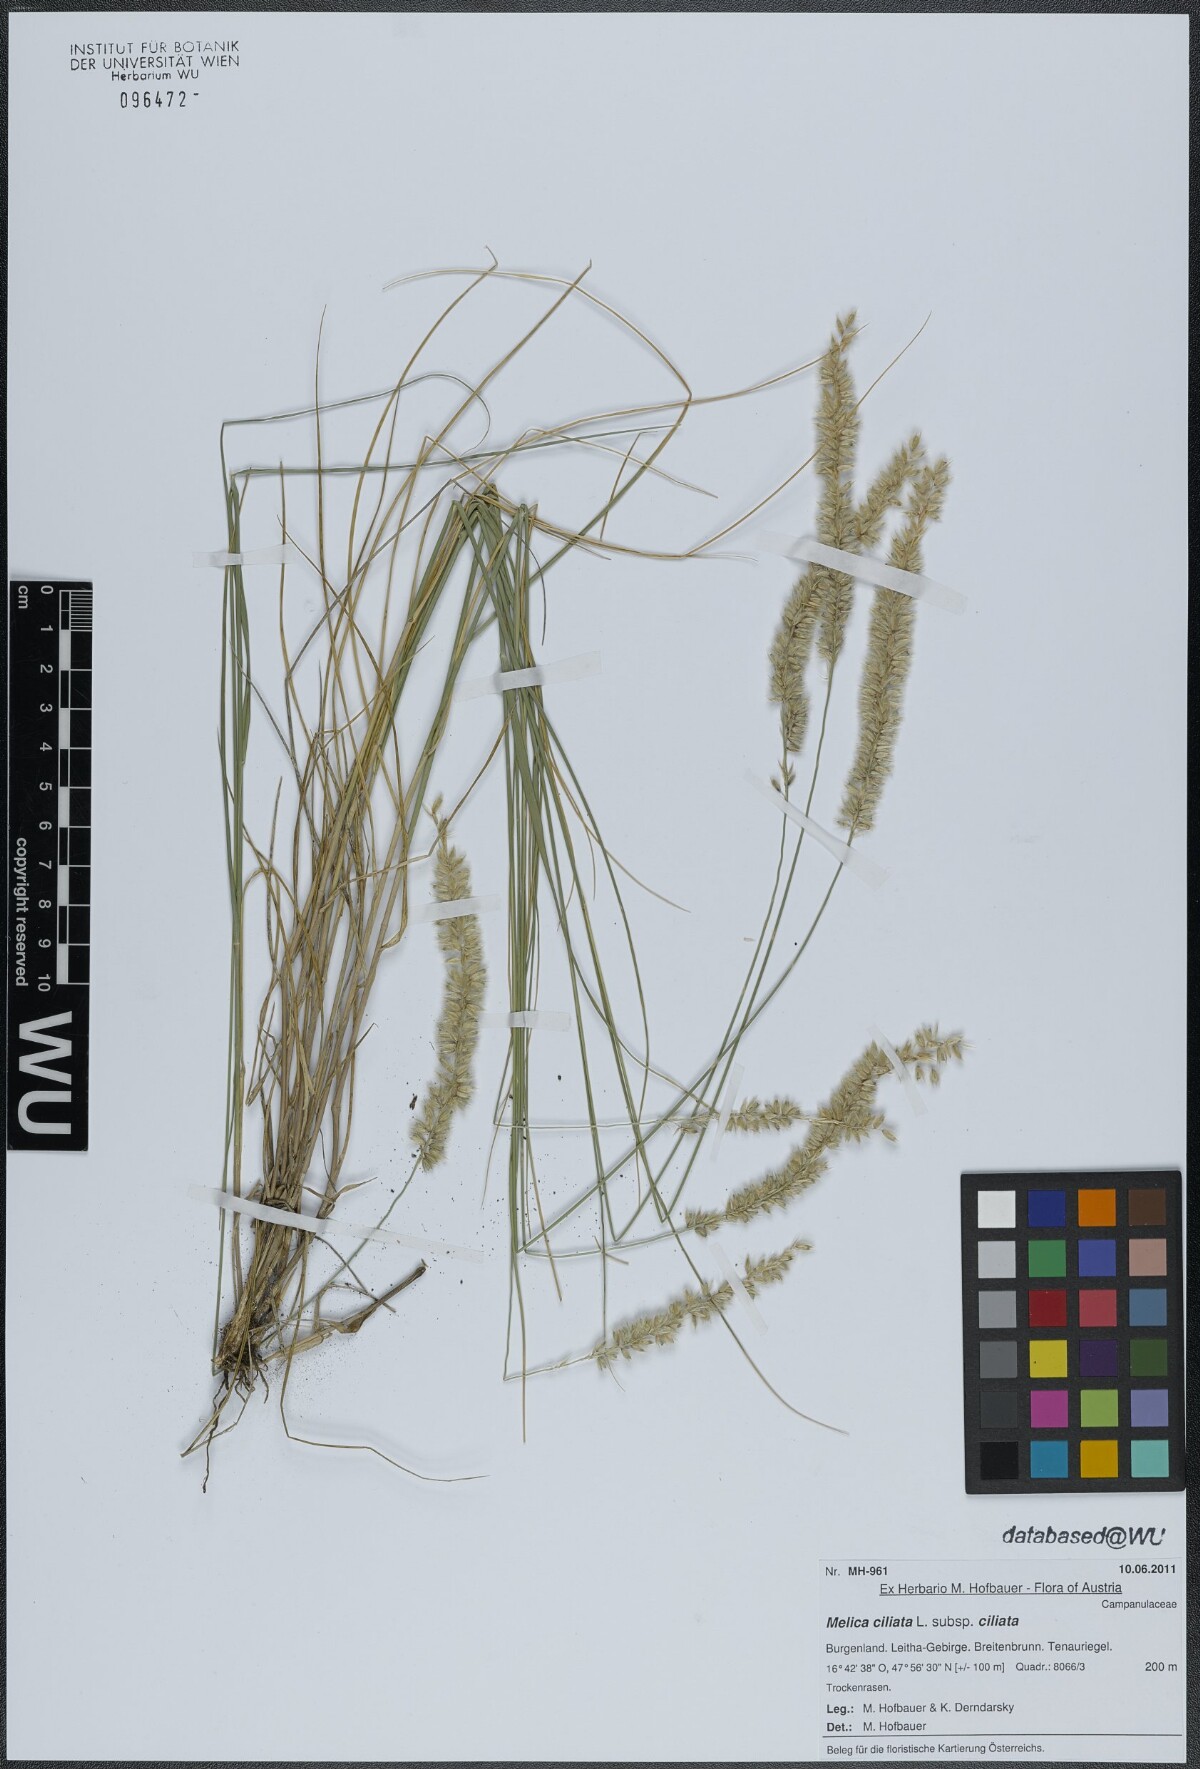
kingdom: Plantae
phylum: Tracheophyta
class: Liliopsida
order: Poales
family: Poaceae
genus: Melica
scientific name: Melica ciliata
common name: Hairy melicgrass
